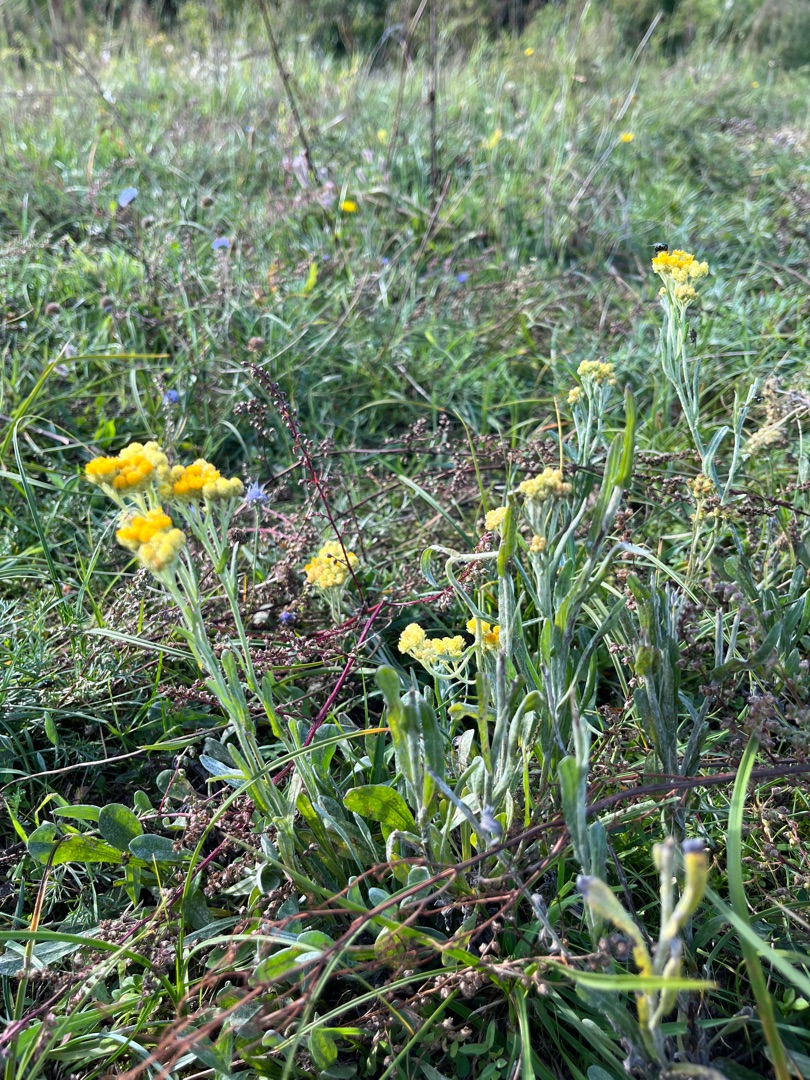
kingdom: Plantae
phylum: Tracheophyta
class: Magnoliopsida
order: Asterales
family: Asteraceae
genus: Helichrysum
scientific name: Helichrysum arenarium
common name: Gul evighedsblomst
